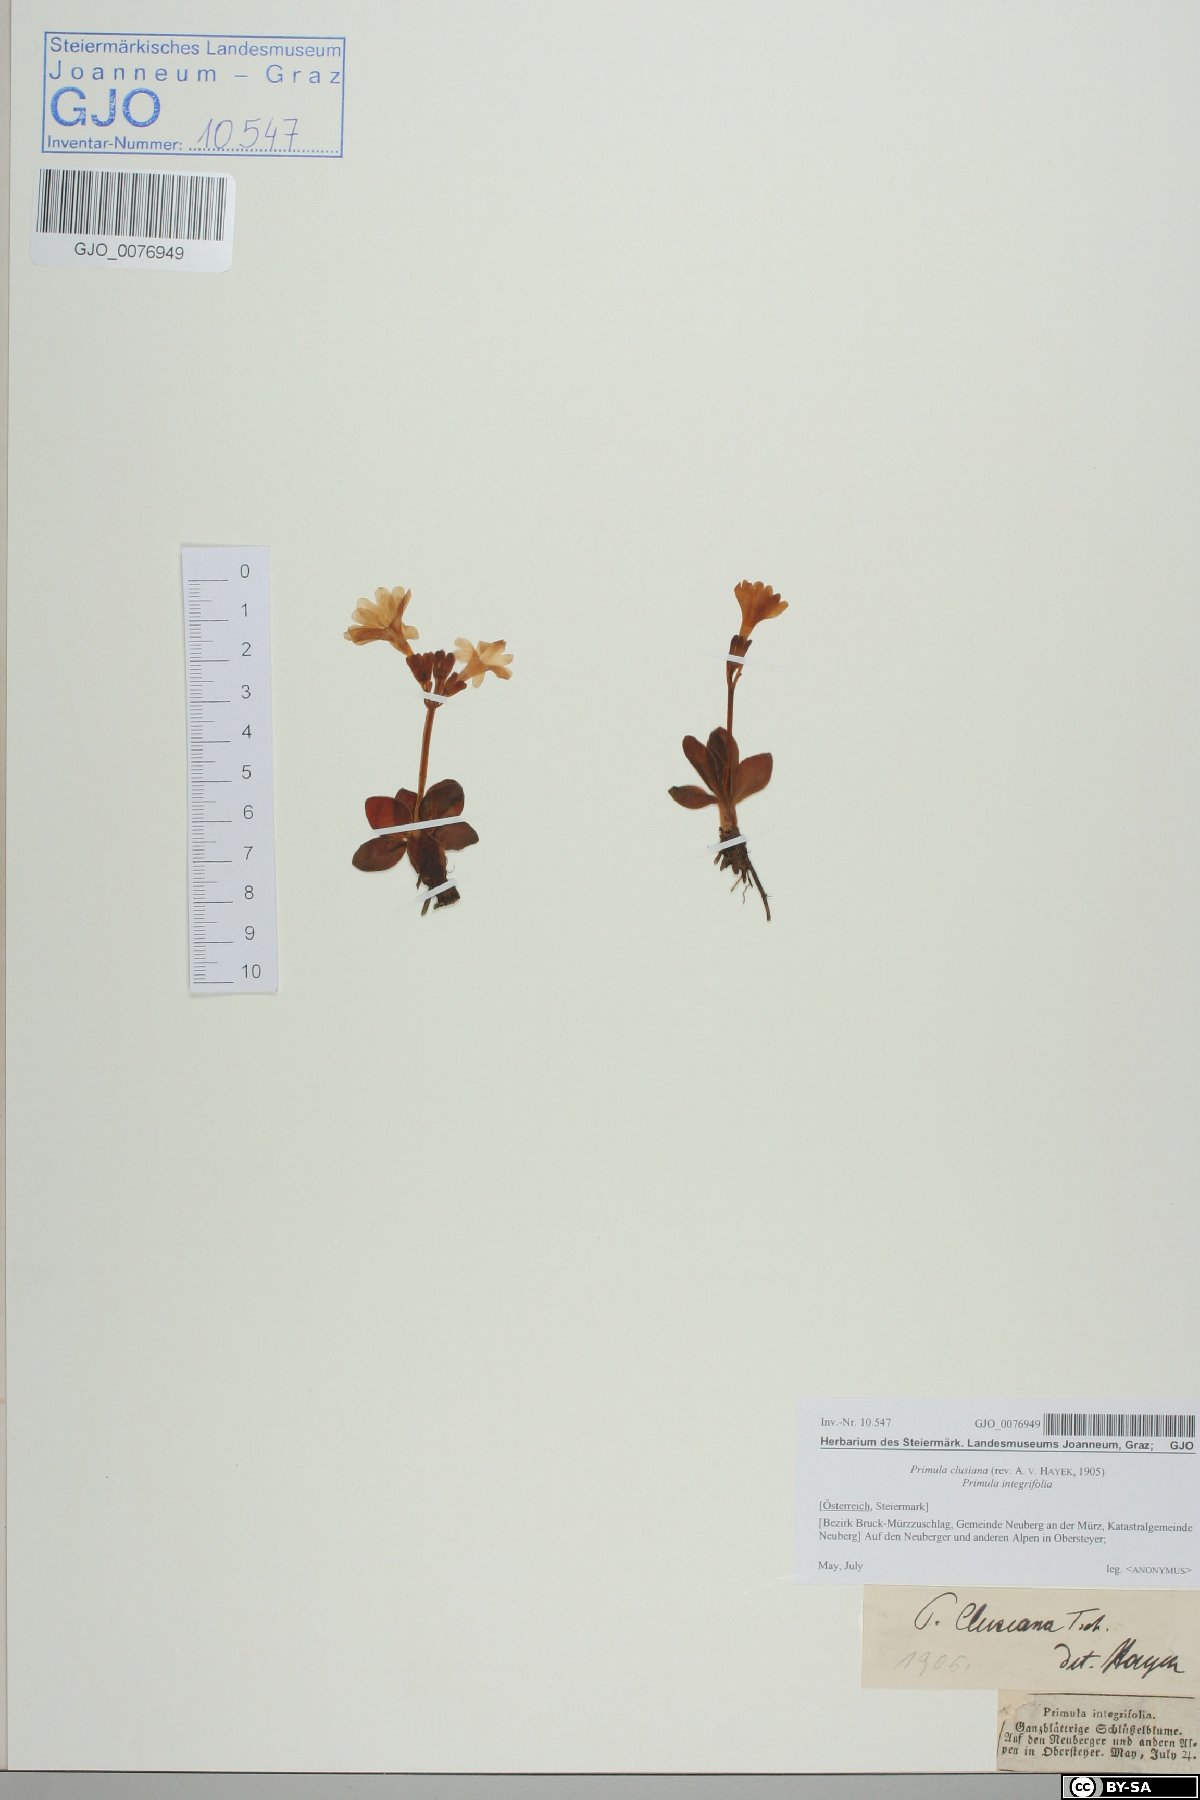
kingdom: Plantae
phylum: Tracheophyta
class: Magnoliopsida
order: Ericales
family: Primulaceae
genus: Primula
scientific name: Primula clusiana
